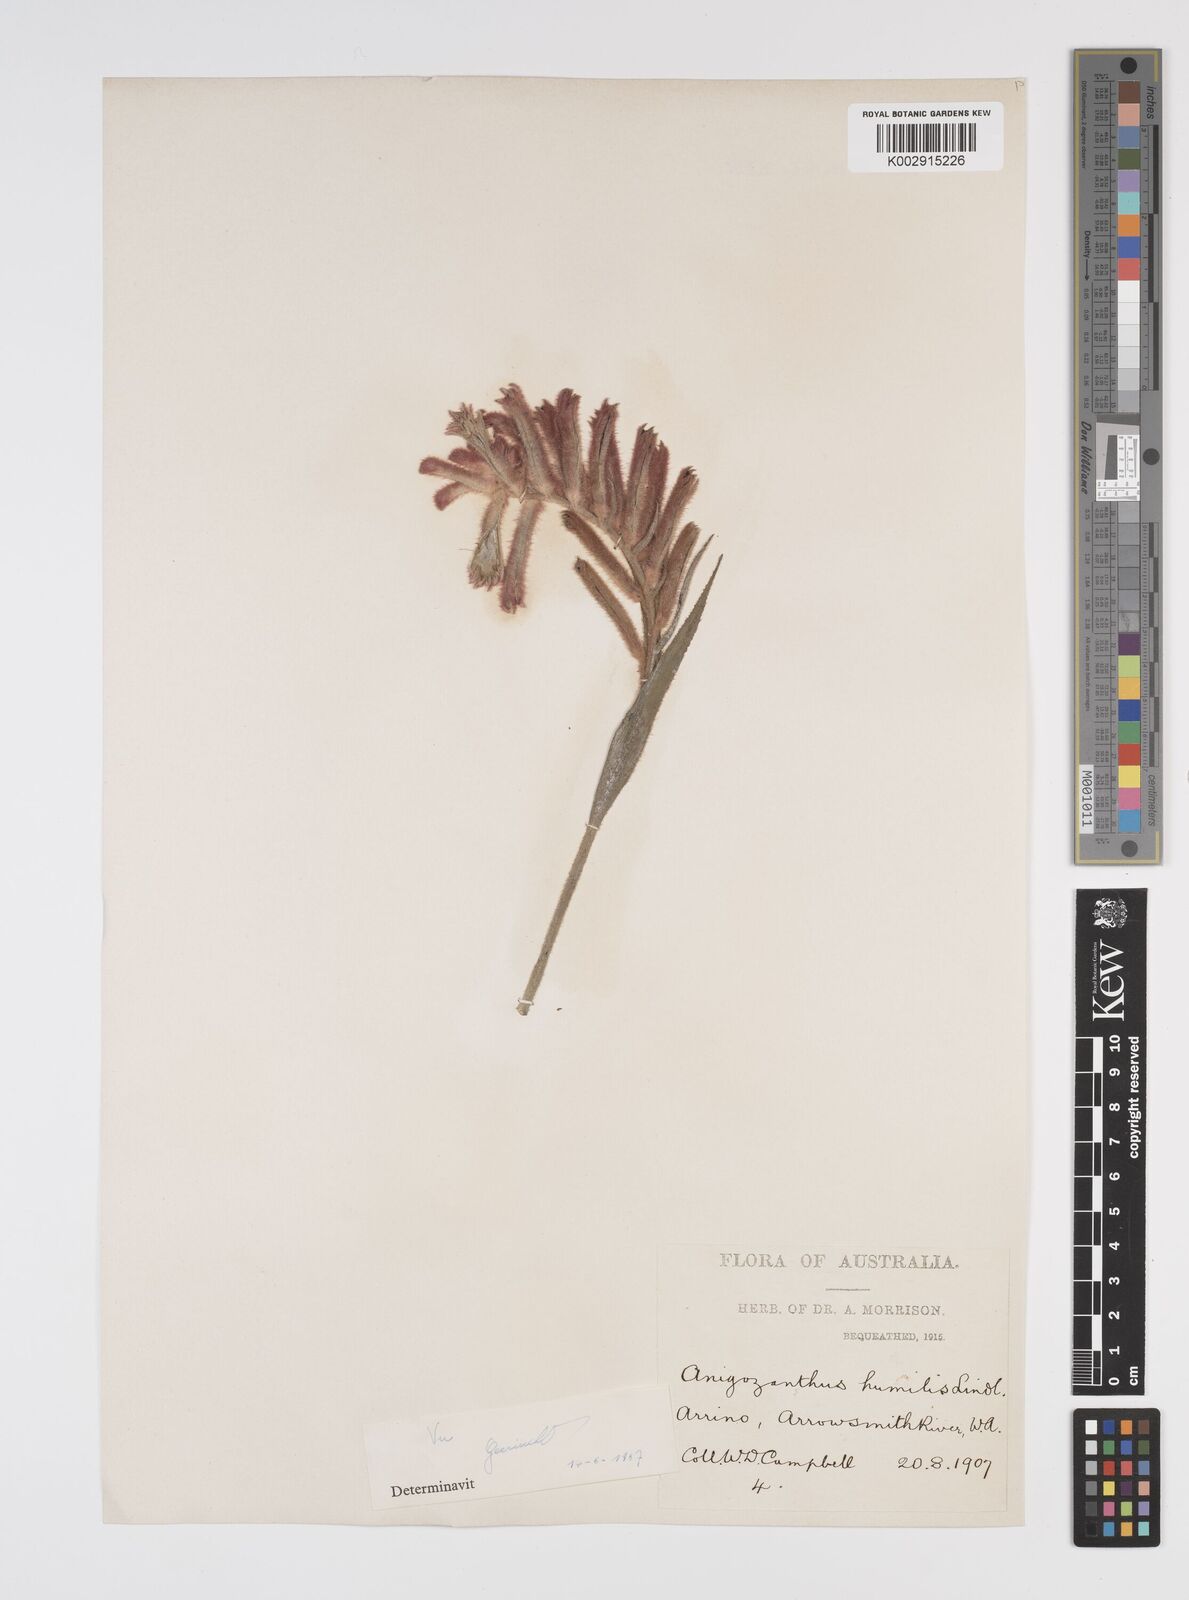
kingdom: Plantae
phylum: Tracheophyta
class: Liliopsida
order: Commelinales
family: Haemodoraceae
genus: Anigozanthos
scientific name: Anigozanthos humilis
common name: Cat's-paw
